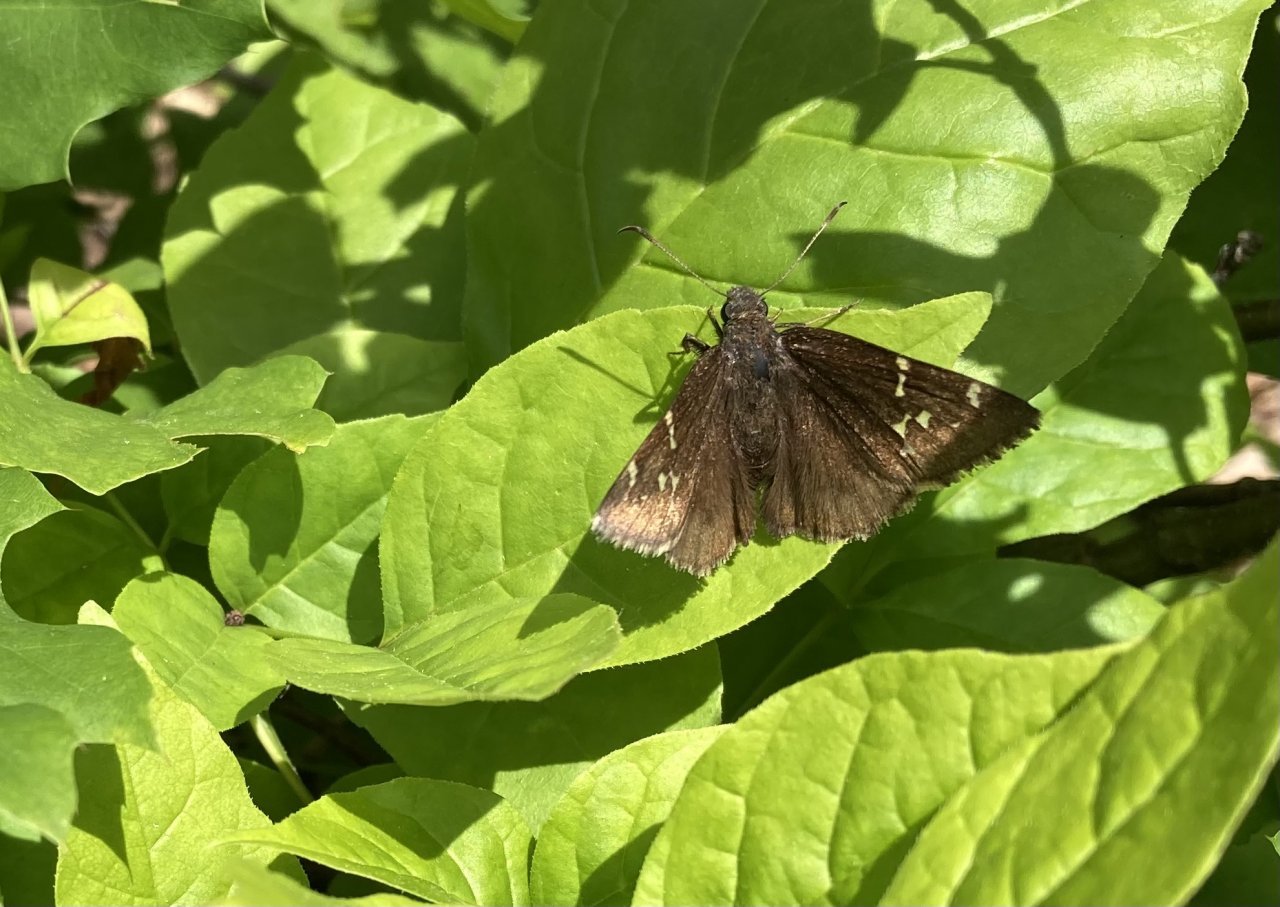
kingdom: Animalia
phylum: Arthropoda
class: Insecta
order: Lepidoptera
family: Hesperiidae
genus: Autochton
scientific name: Autochton
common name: Northern Cloudywing
